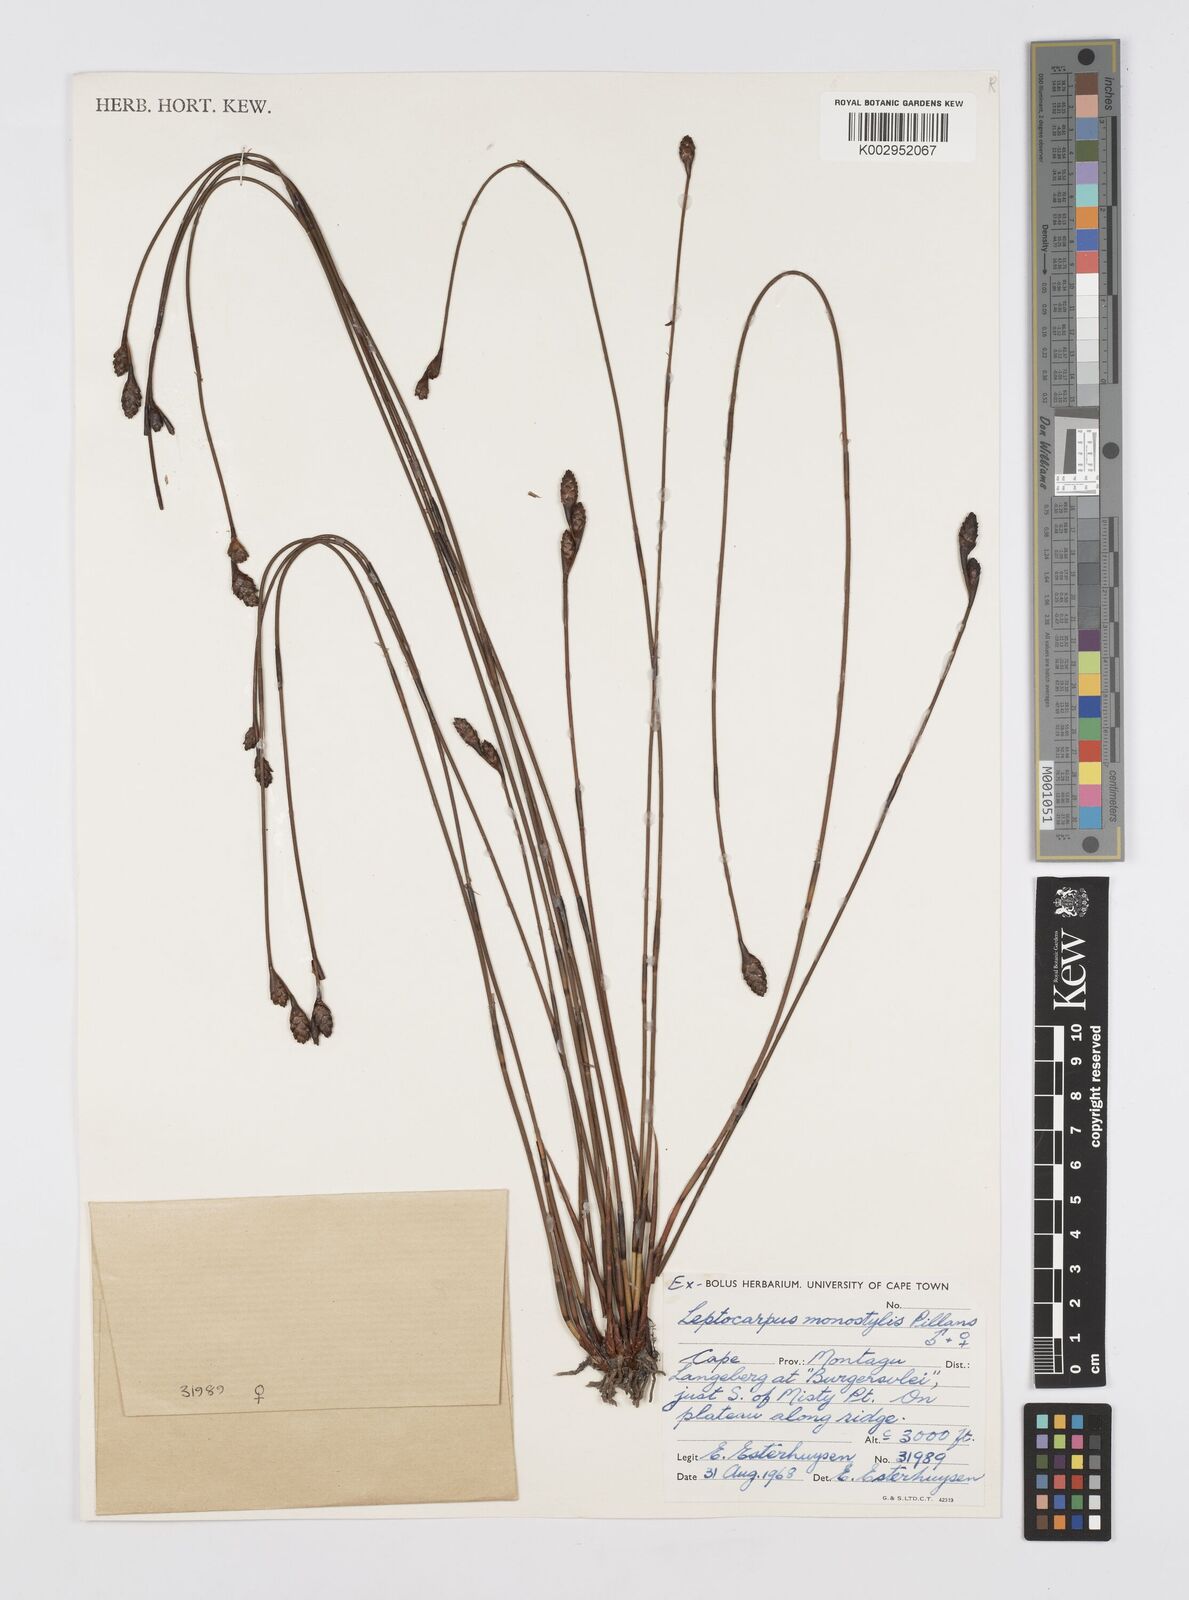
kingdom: Plantae
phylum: Tracheophyta
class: Liliopsida
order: Poales
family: Restionaceae
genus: Restio
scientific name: Restio monostylis
